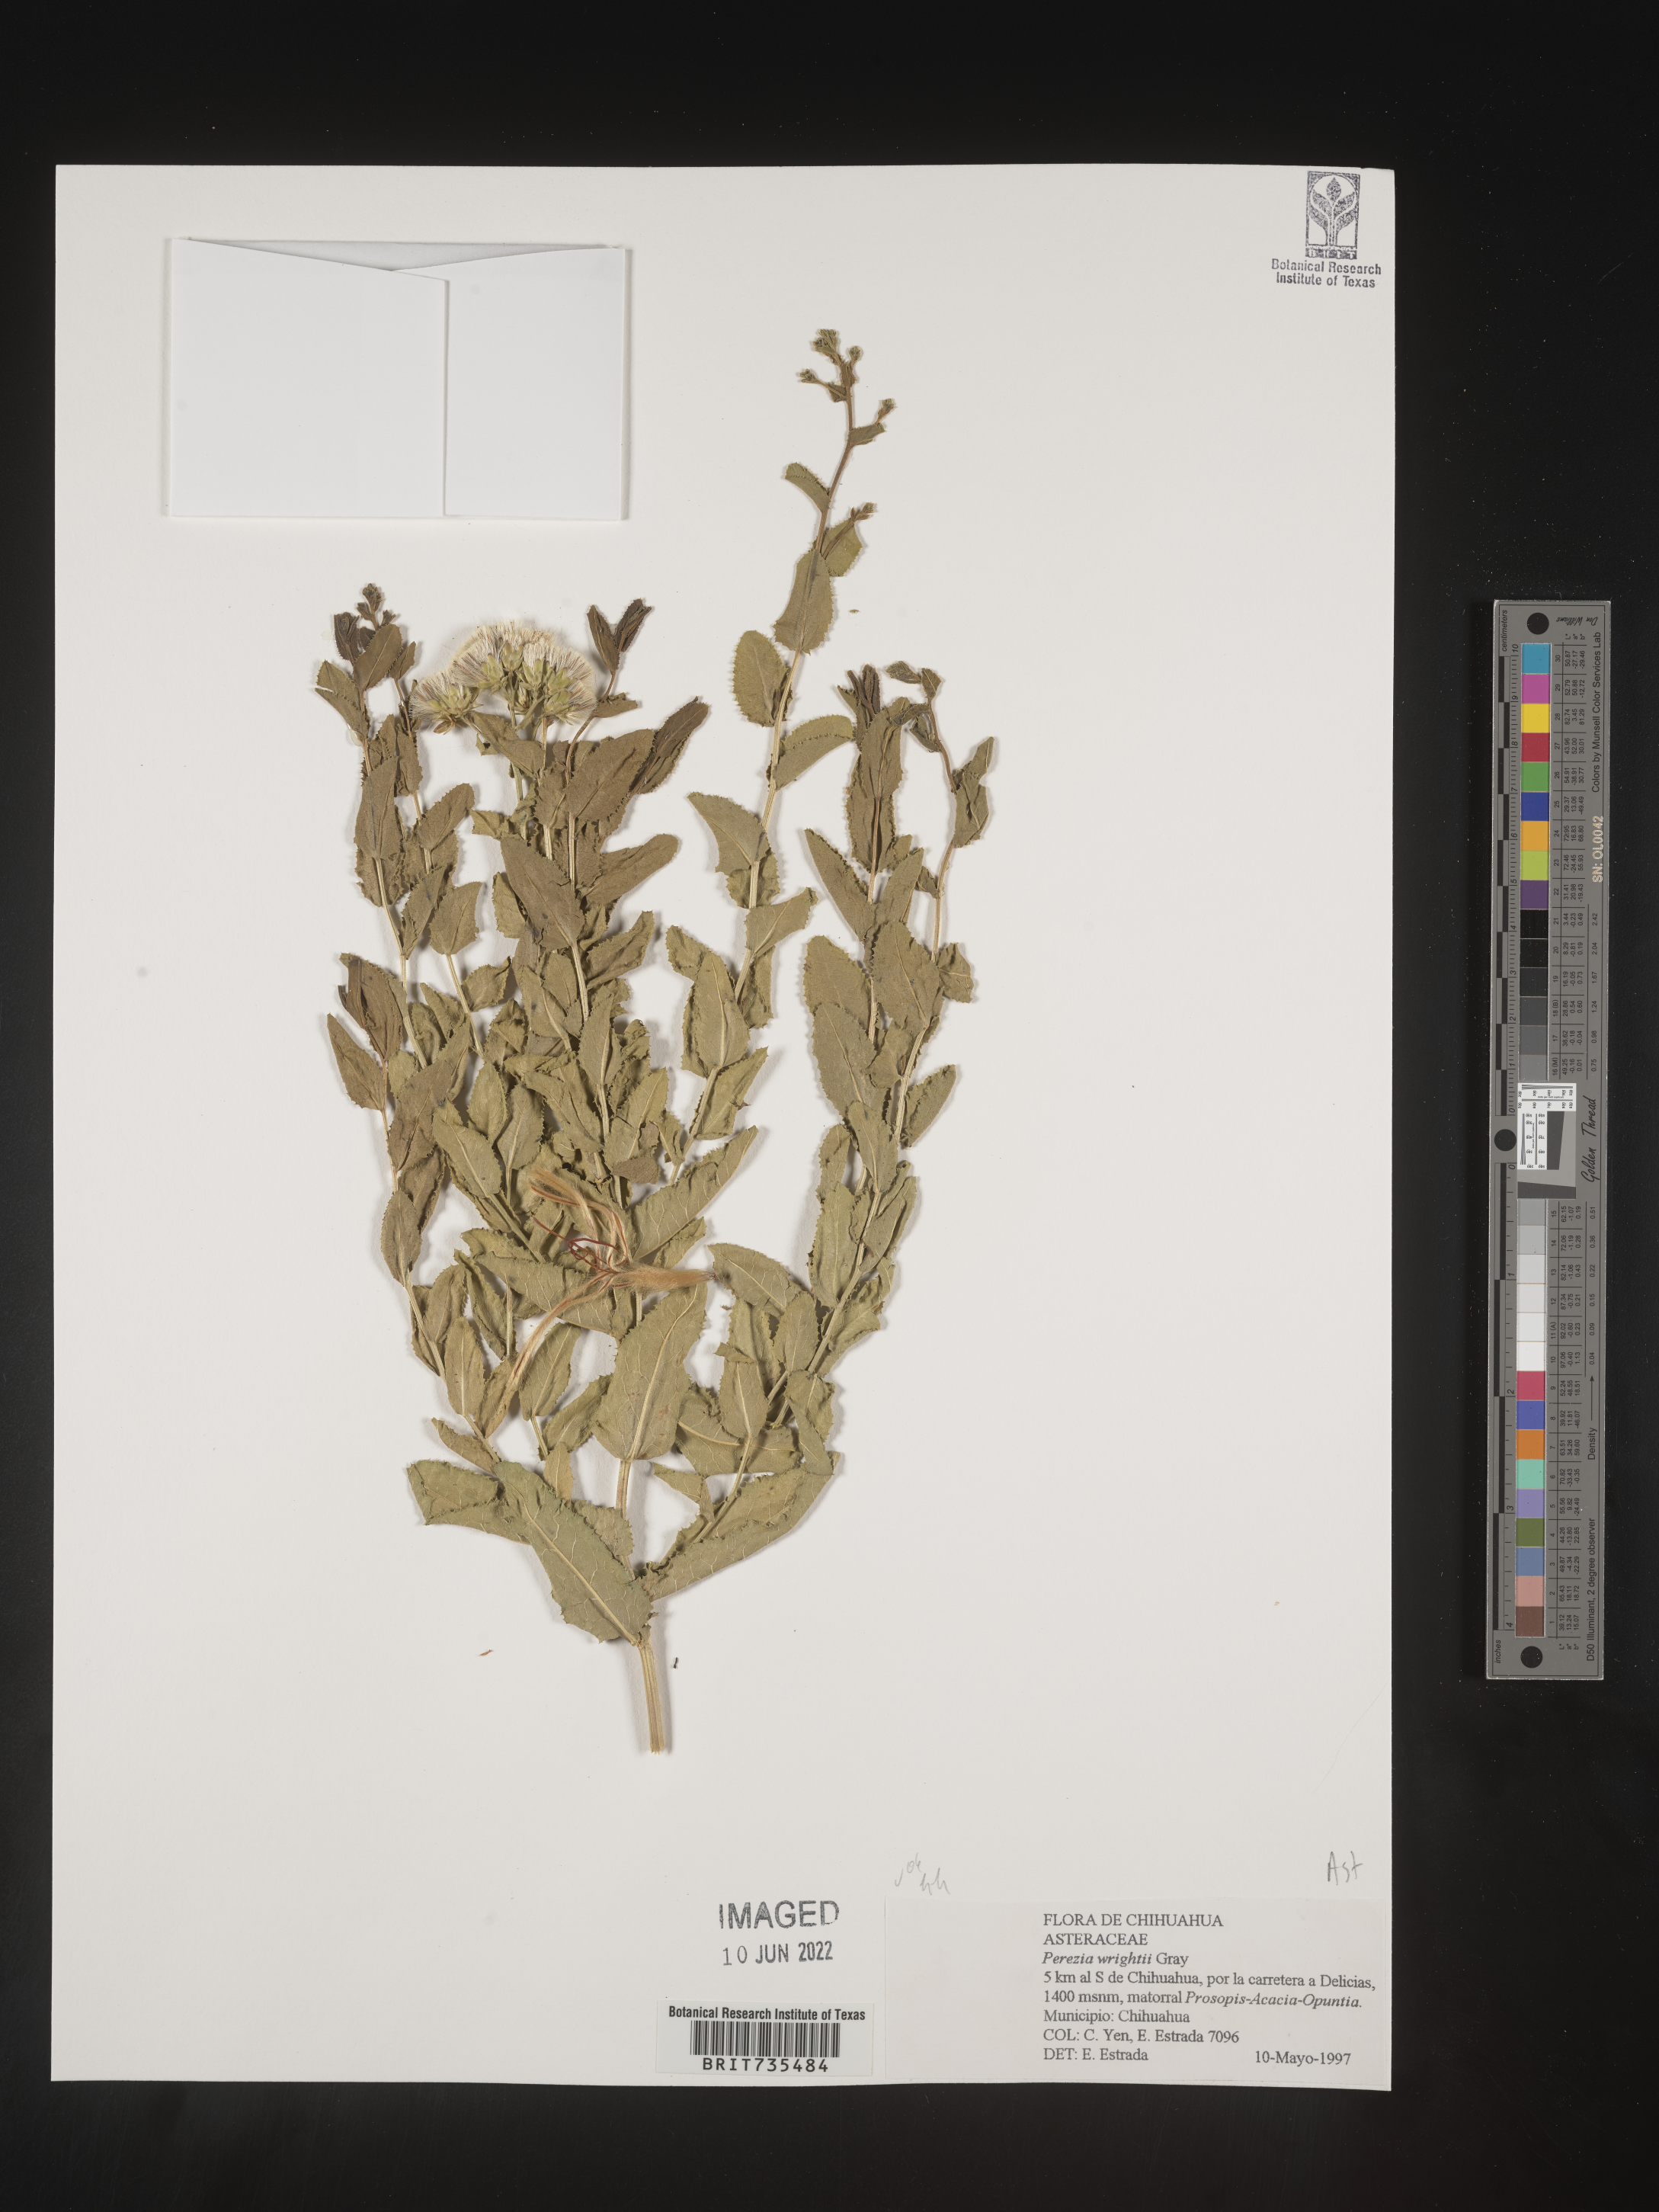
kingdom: Plantae
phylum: Tracheophyta
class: Magnoliopsida
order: Asterales
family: Asteraceae
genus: Perezia
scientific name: Perezia
